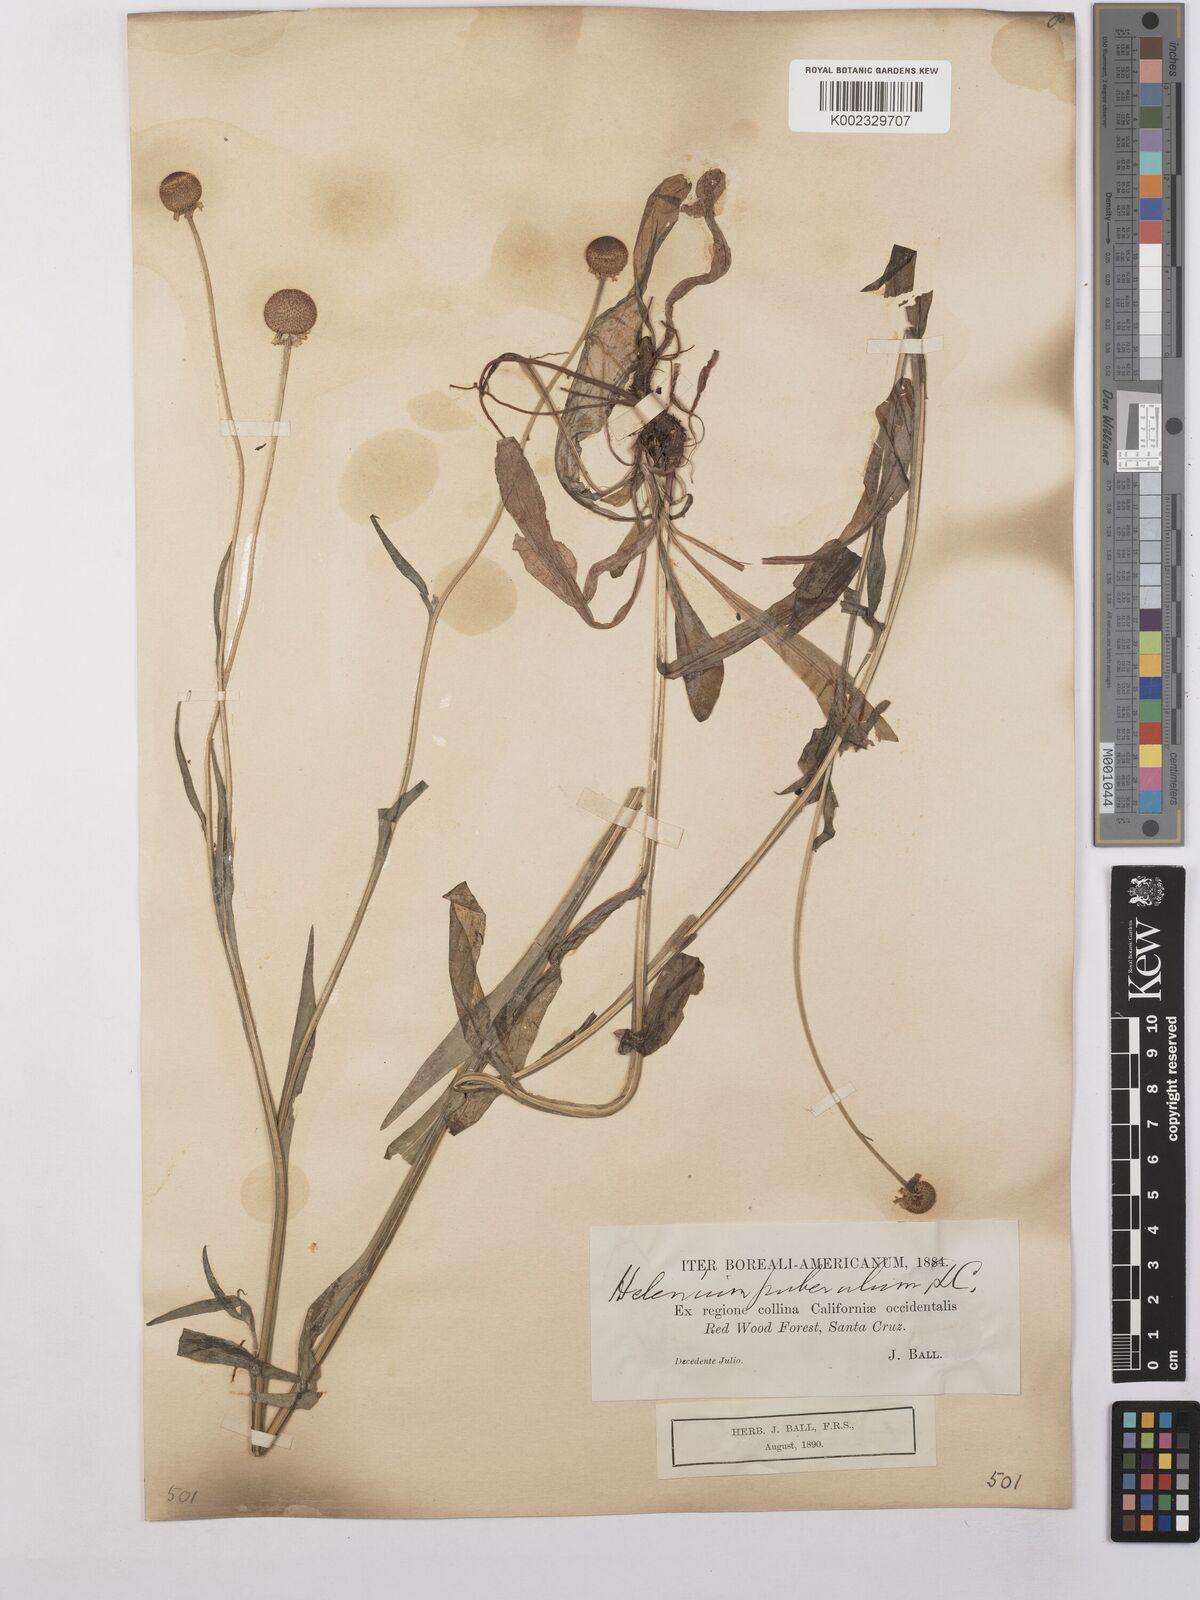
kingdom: Plantae
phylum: Tracheophyta
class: Magnoliopsida
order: Asterales
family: Asteraceae
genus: Helenium
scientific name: Helenium puberulum
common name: Sneezewort
